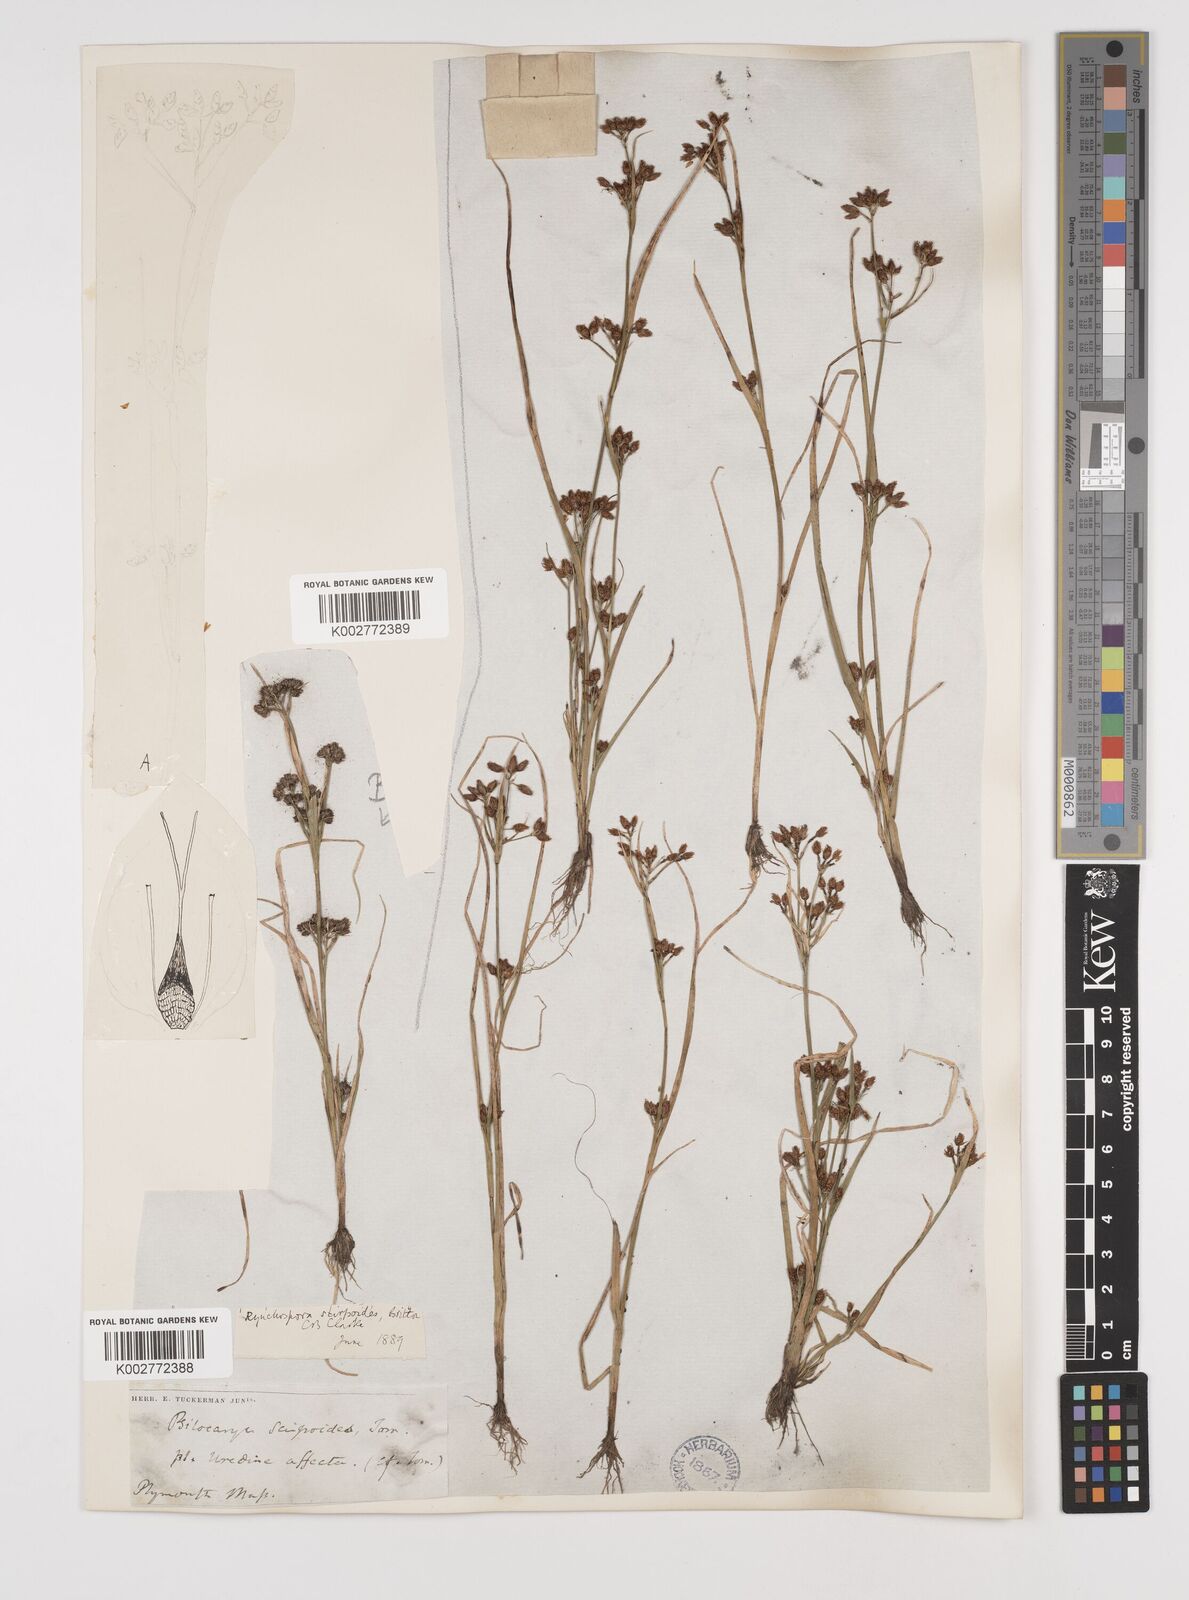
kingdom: Plantae
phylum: Tracheophyta
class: Liliopsida
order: Poales
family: Cyperaceae
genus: Rhynchospora
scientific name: Rhynchospora scirpoides
